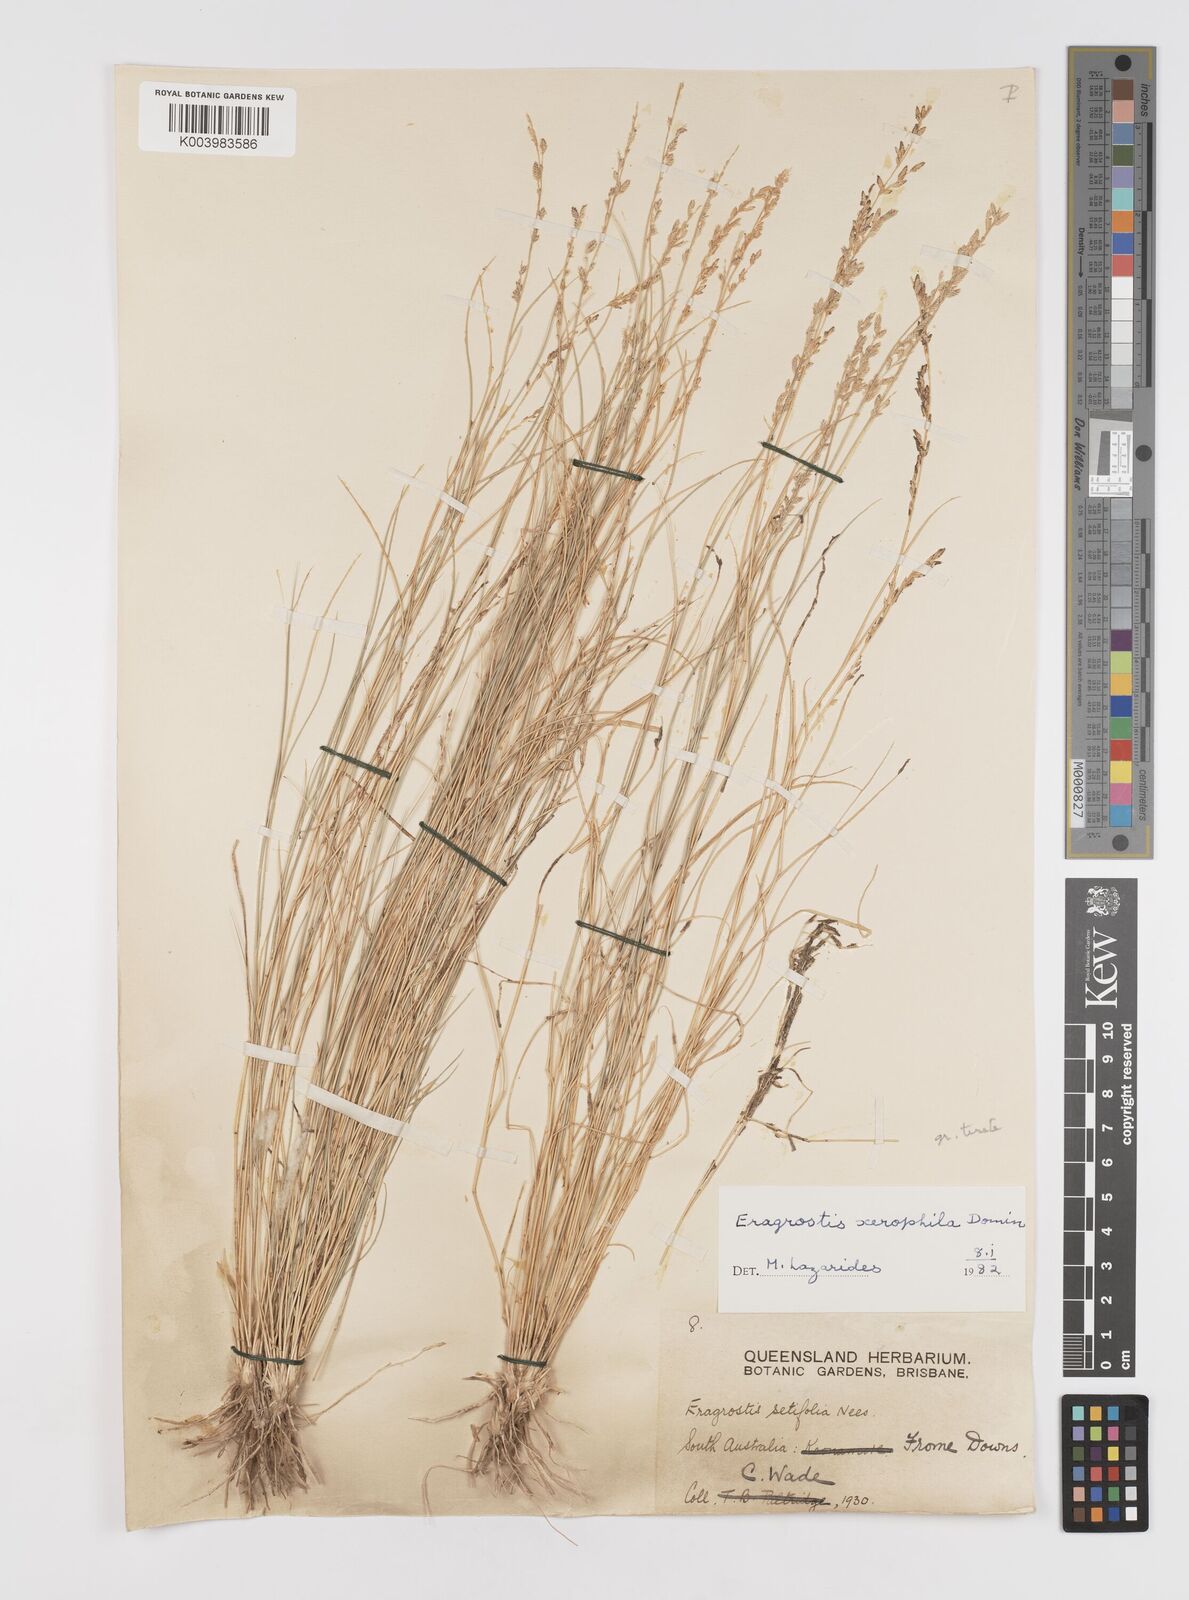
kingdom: Plantae
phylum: Tracheophyta
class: Liliopsida
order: Poales
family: Poaceae
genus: Eragrostis
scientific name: Eragrostis xerophila
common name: Wire wandarrie grass
